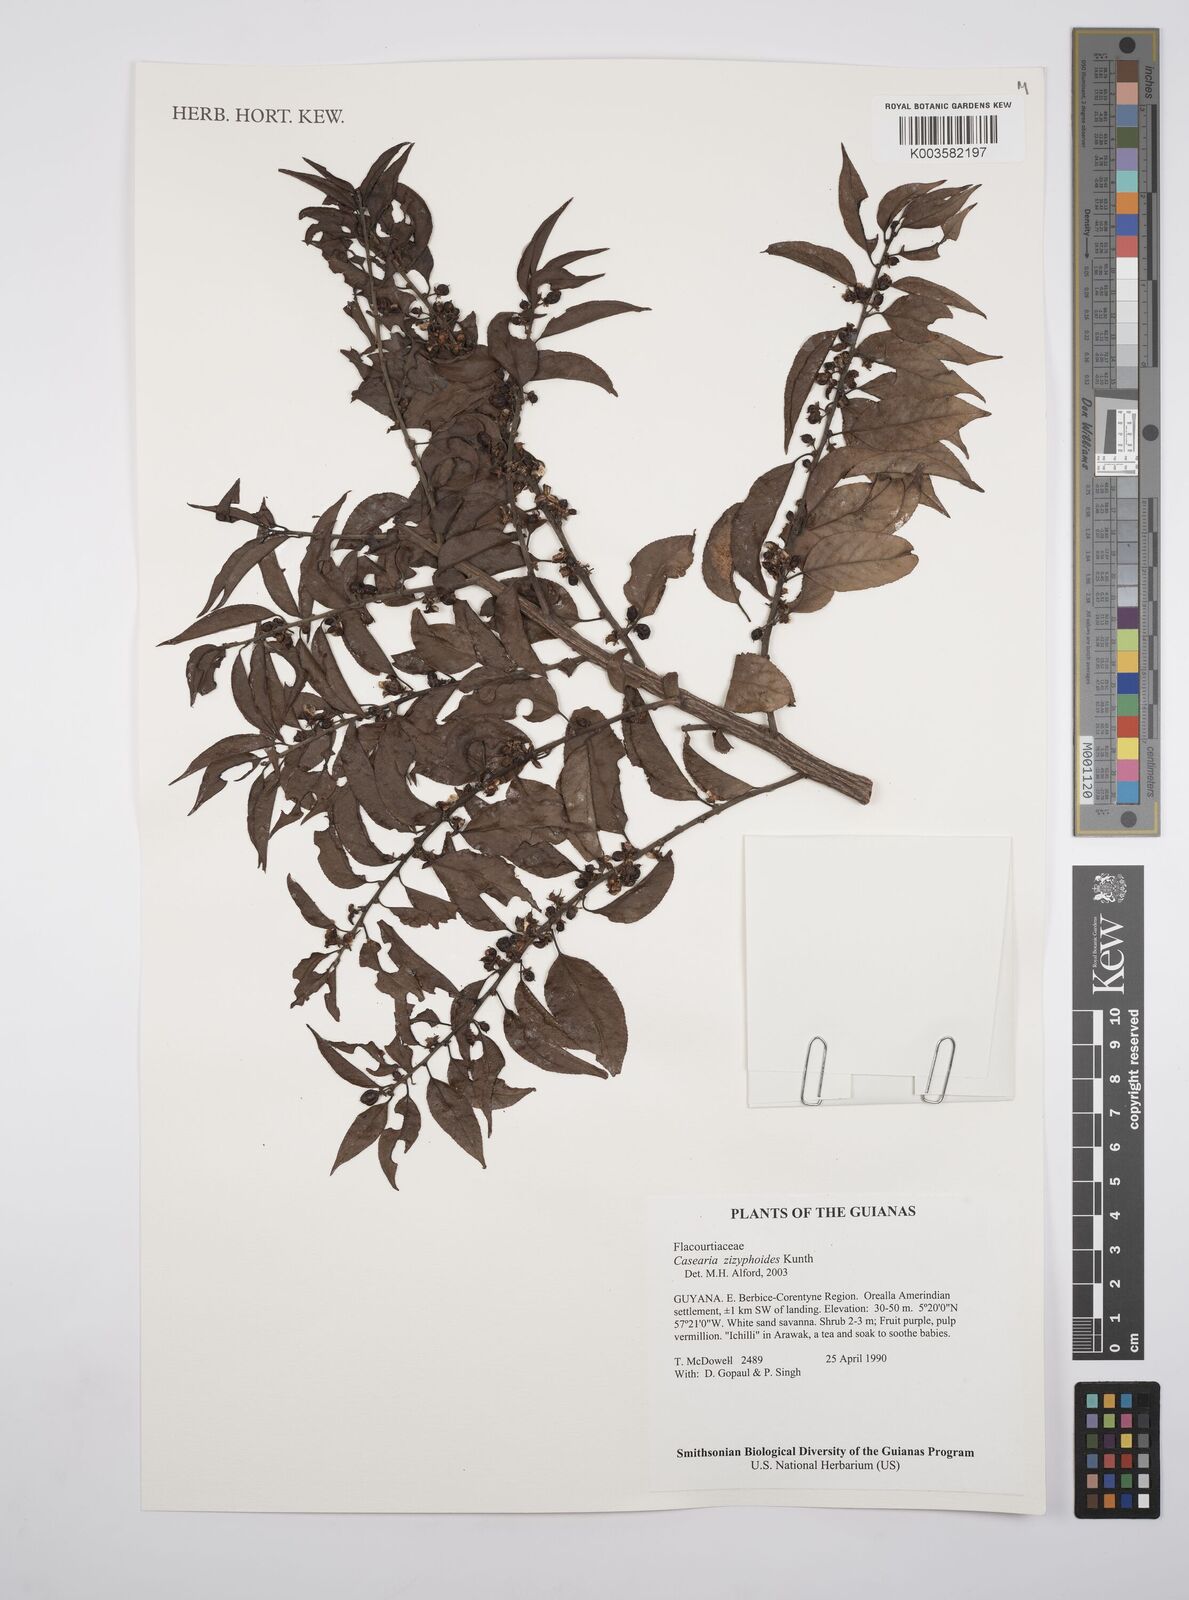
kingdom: Plantae
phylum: Tracheophyta
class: Magnoliopsida
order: Malpighiales
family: Salicaceae
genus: Casearia
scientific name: Casearia zizyphoides
